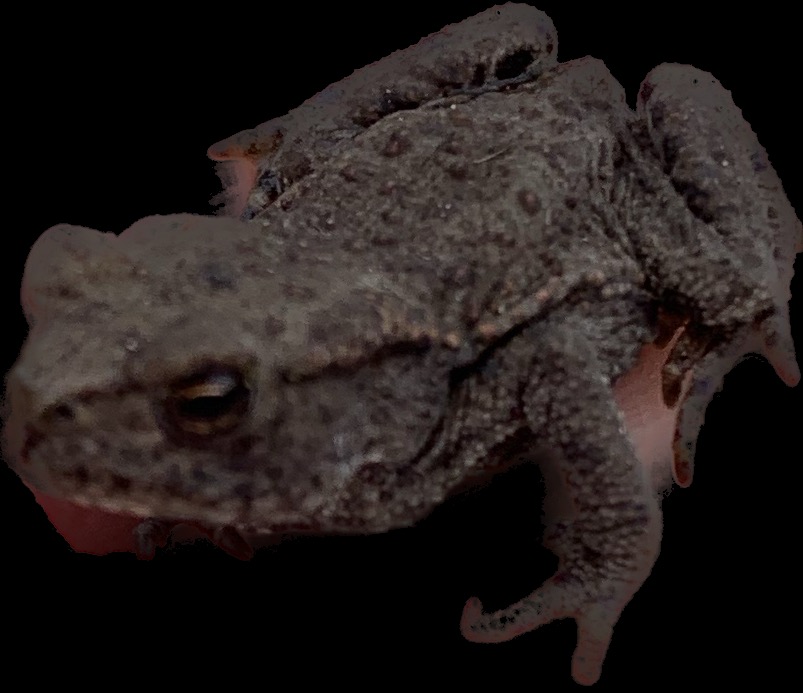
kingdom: Animalia
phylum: Chordata
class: Amphibia
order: Anura
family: Bufonidae
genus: Bufo
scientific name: Bufo bufo
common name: Skrubtudse
